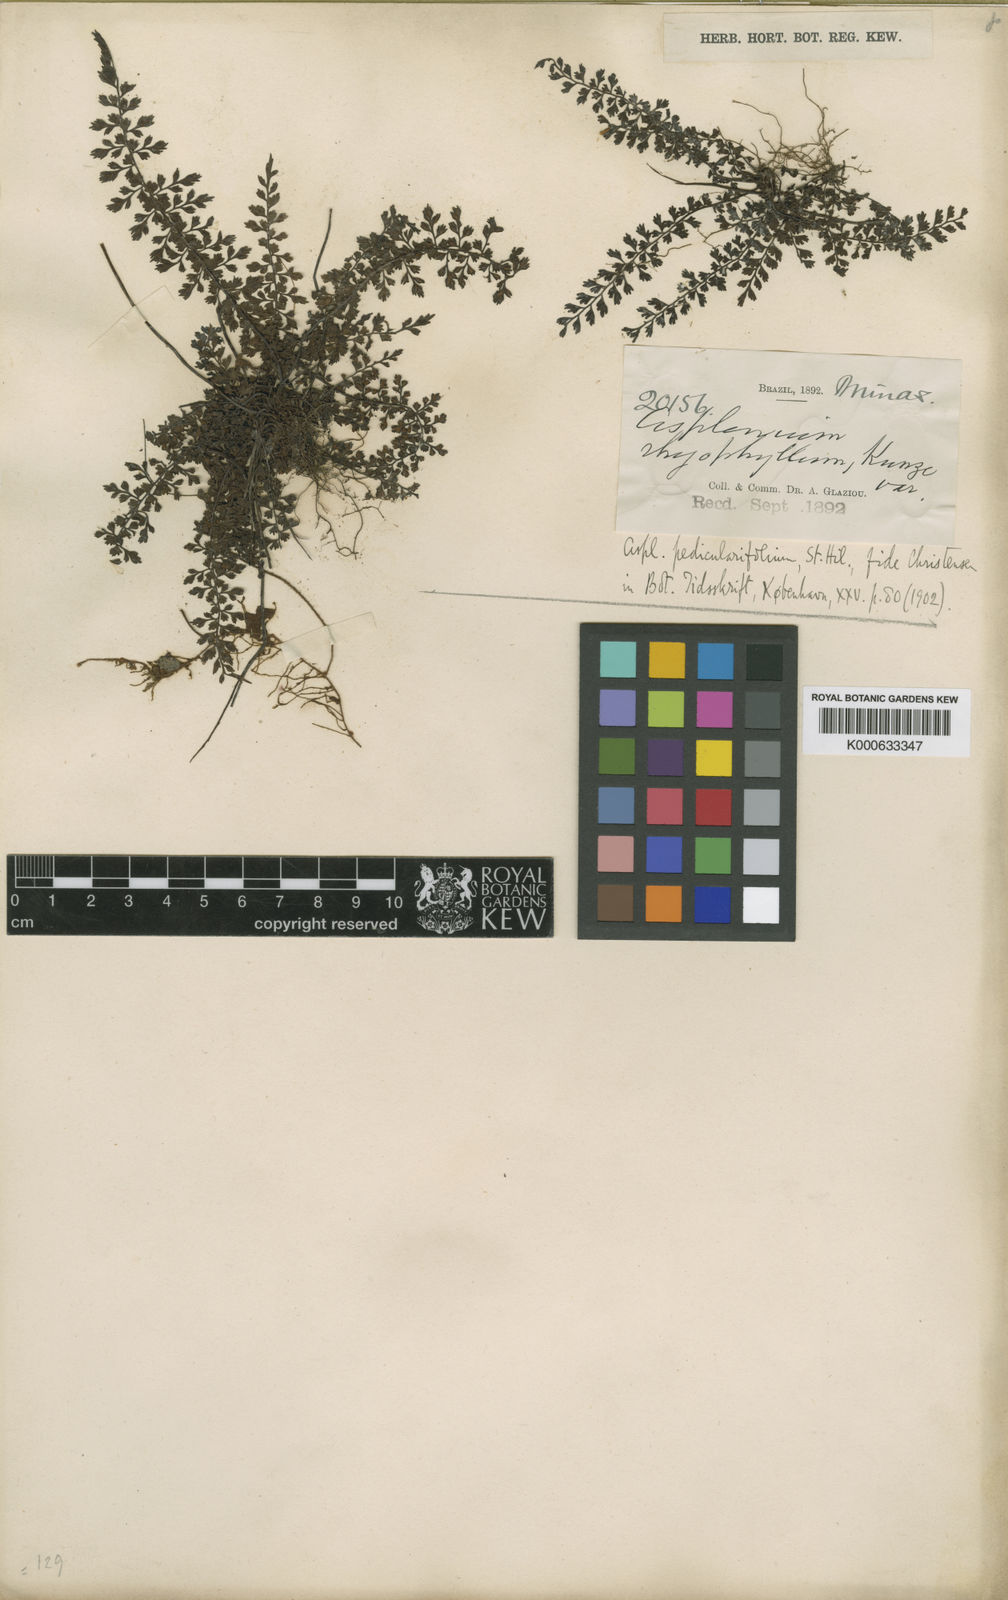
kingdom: Plantae
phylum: Tracheophyta
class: Polypodiopsida
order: Polypodiales
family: Aspleniaceae
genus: Asplenium
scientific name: Asplenium pedicularifolium
